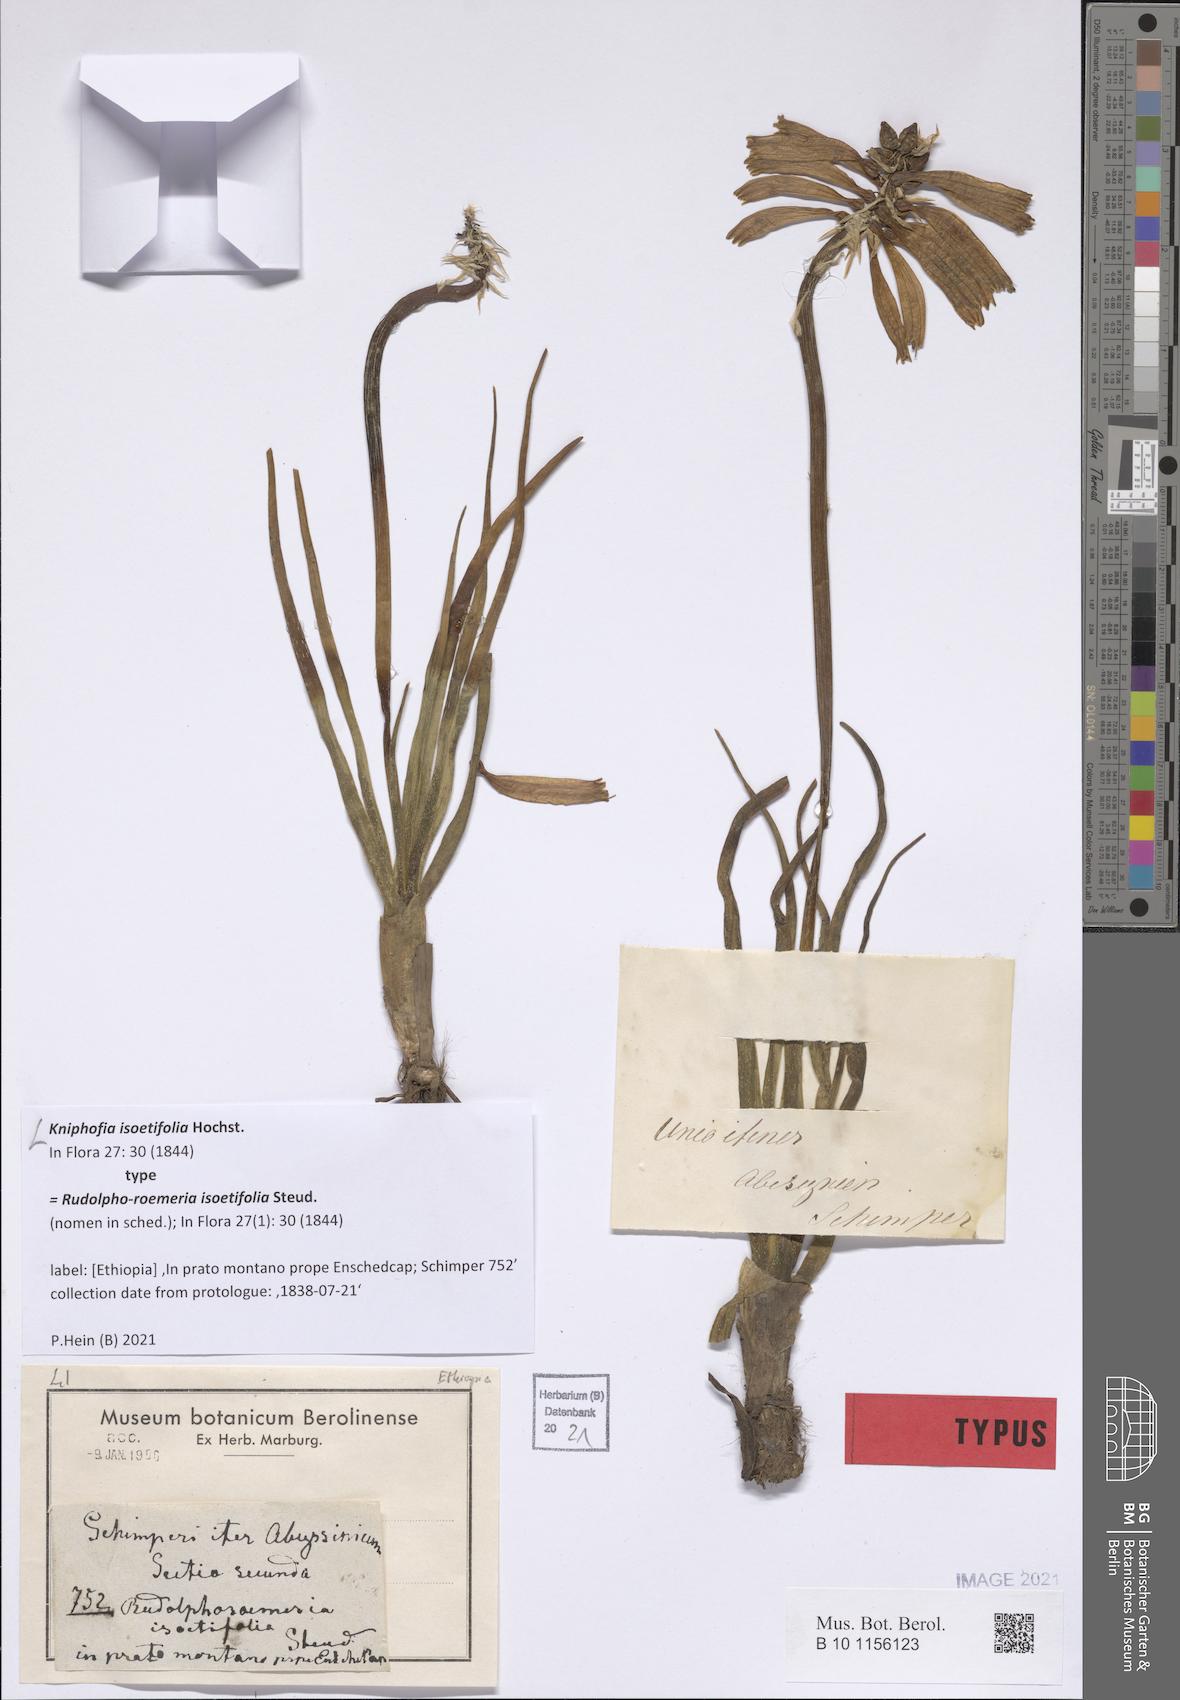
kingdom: Plantae
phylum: Tracheophyta
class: Liliopsida
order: Asparagales
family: Asphodelaceae
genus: Kniphofia
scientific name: Kniphofia isoetifolia
